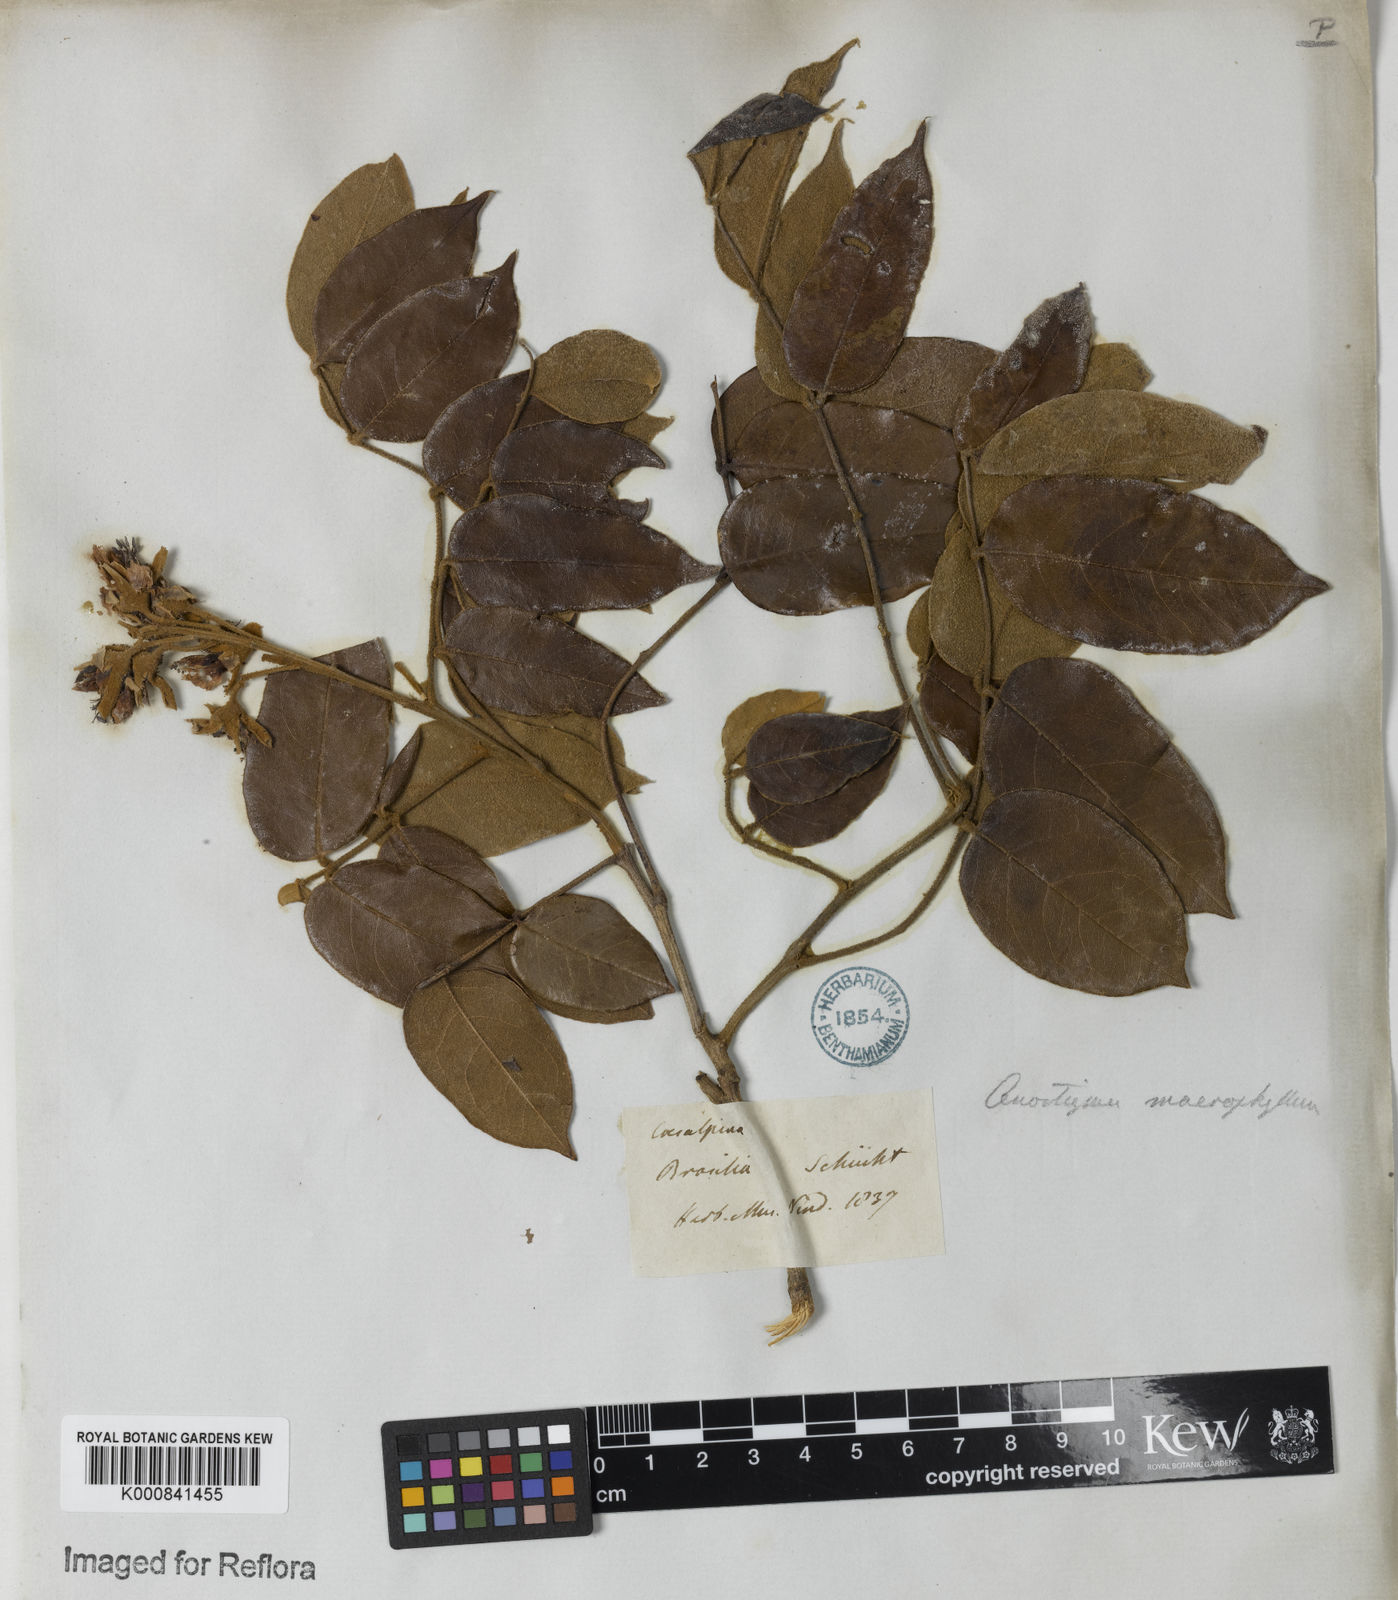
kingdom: Plantae
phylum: Tracheophyta
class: Magnoliopsida
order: Fabales
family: Fabaceae
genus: Cenostigma
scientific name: Cenostigma macrophyllum
